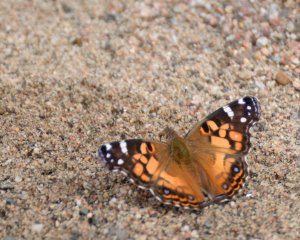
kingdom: Animalia
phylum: Arthropoda
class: Insecta
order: Lepidoptera
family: Nymphalidae
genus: Vanessa
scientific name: Vanessa virginiensis
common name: American Lady
